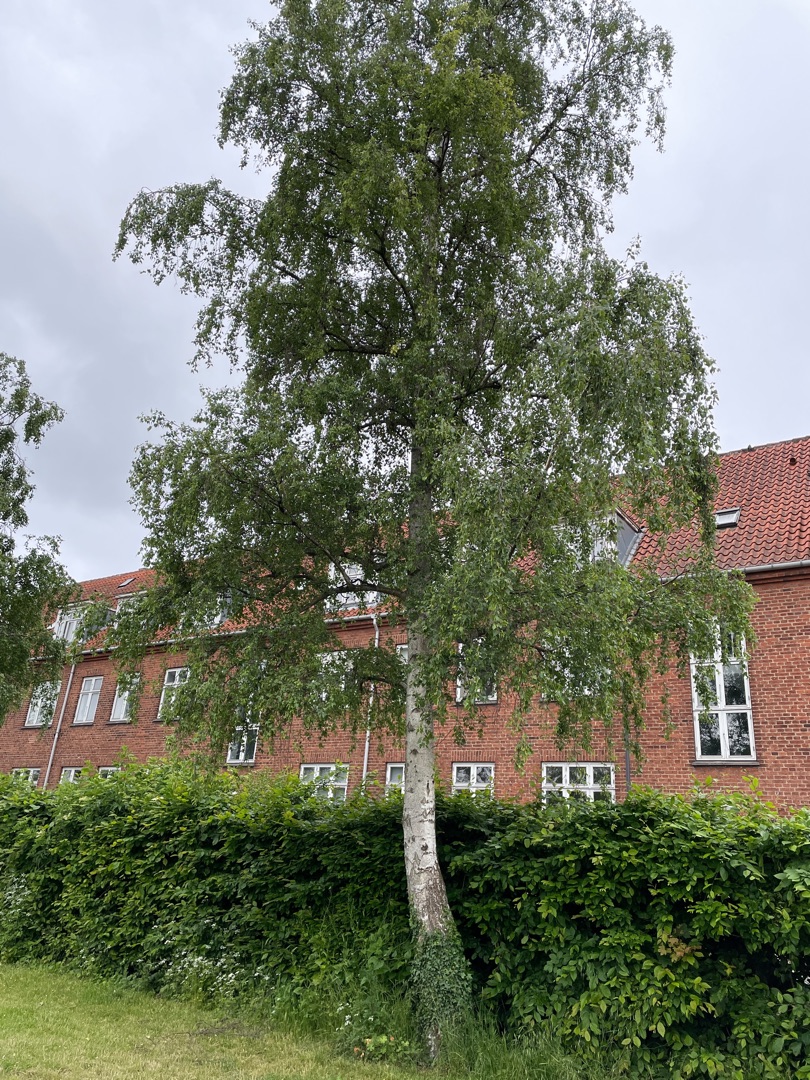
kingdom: Plantae
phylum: Tracheophyta
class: Magnoliopsida
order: Fagales
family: Betulaceae
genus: Betula
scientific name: Betula pendula
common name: Vorte-birk
